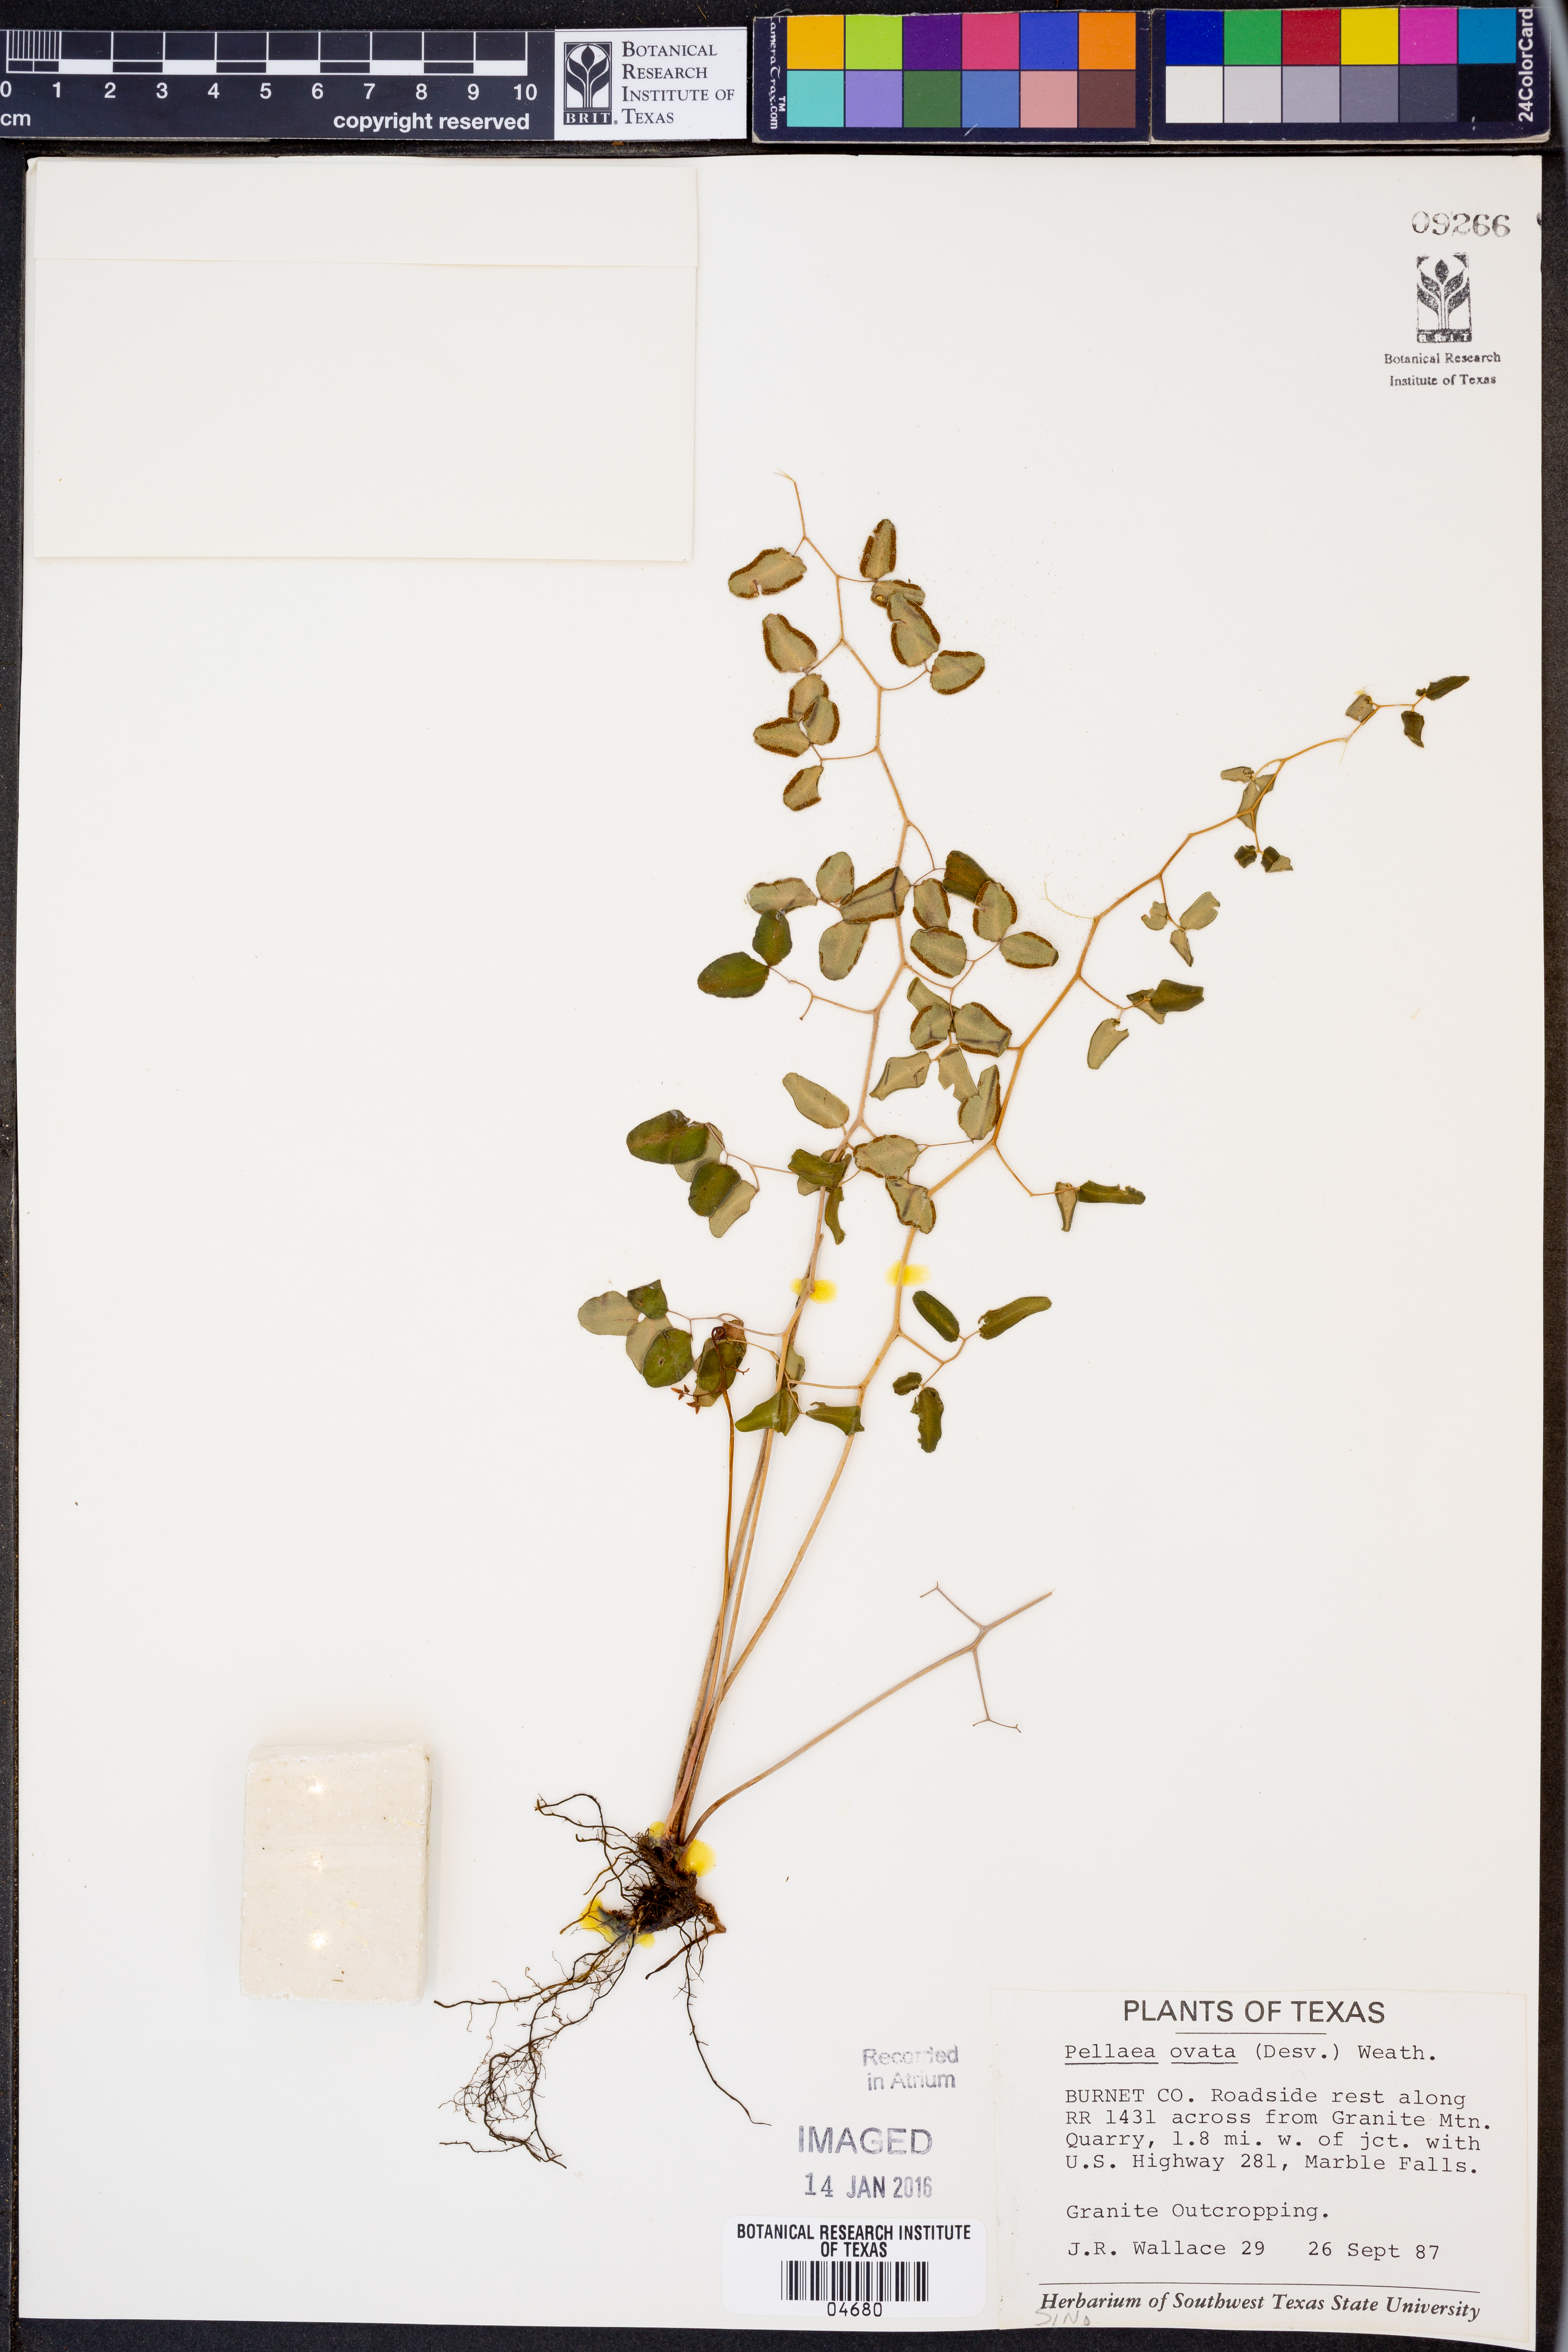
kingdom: Plantae
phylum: Tracheophyta
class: Polypodiopsida
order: Polypodiales
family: Pteridaceae
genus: Pellaea
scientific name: Pellaea ovata
